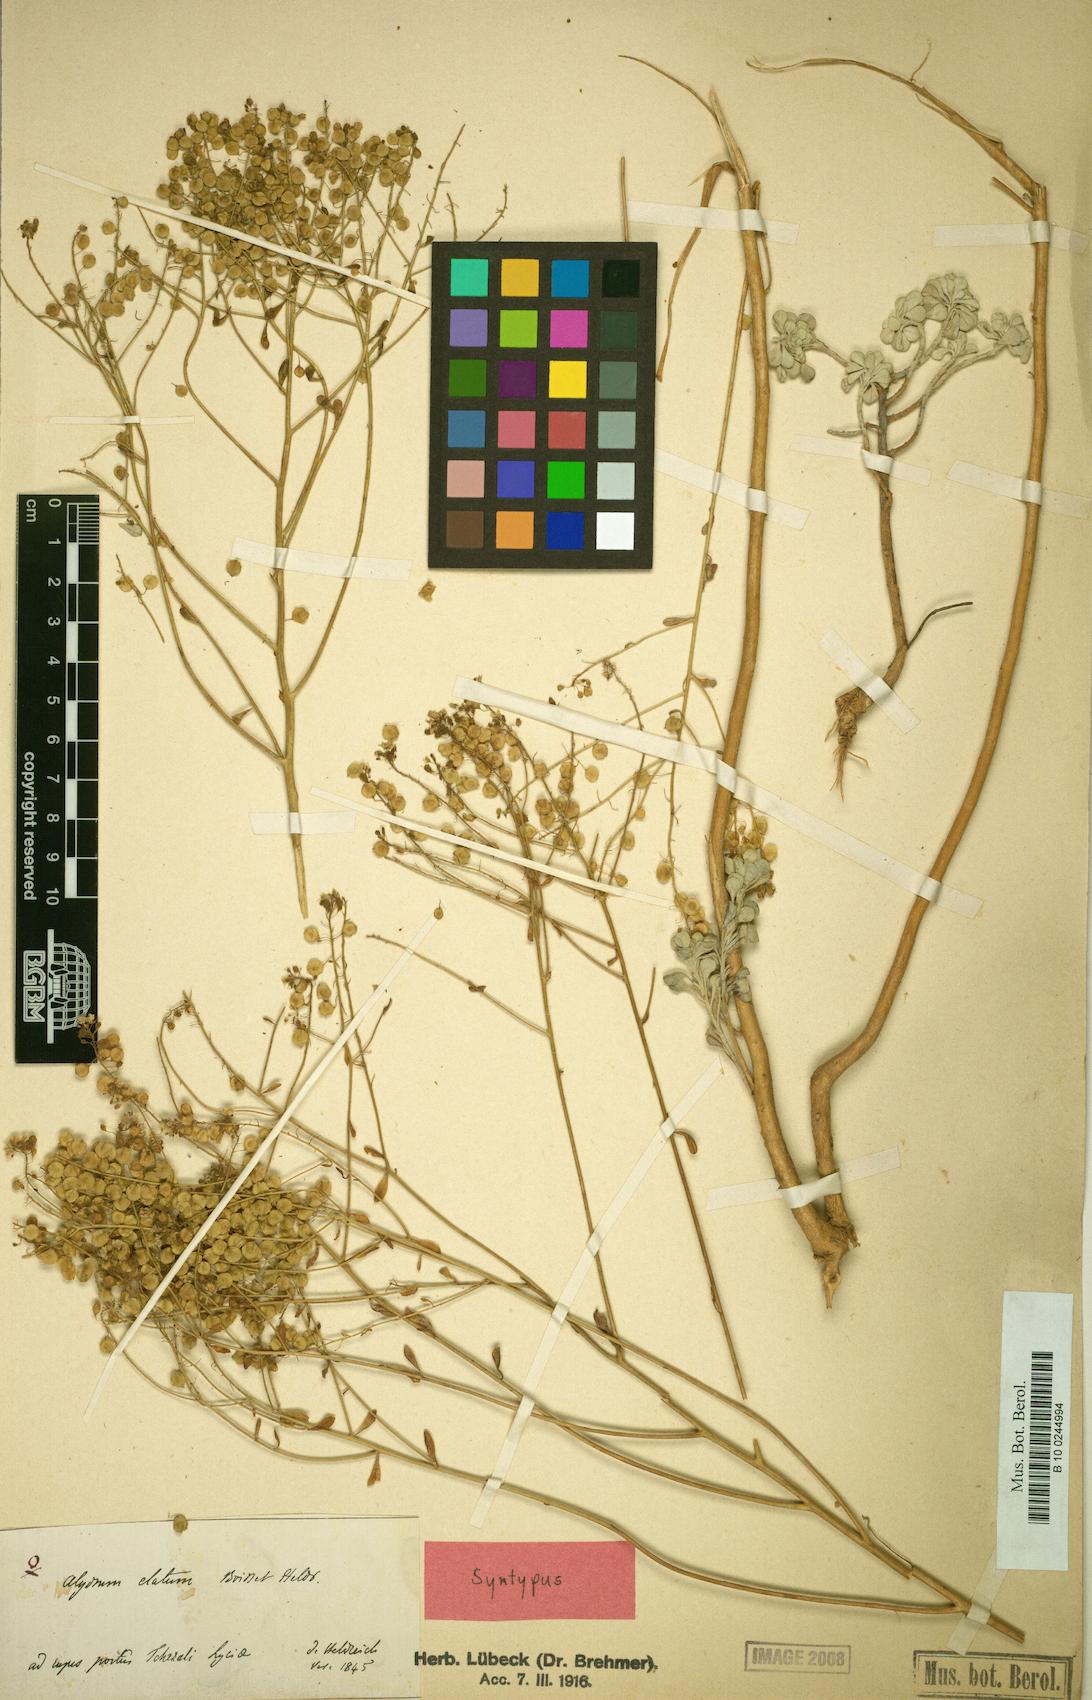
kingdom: Plantae
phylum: Tracheophyta
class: Magnoliopsida
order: Brassicales
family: Brassicaceae
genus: Odontarrhena
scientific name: Odontarrhena pterocarpa
